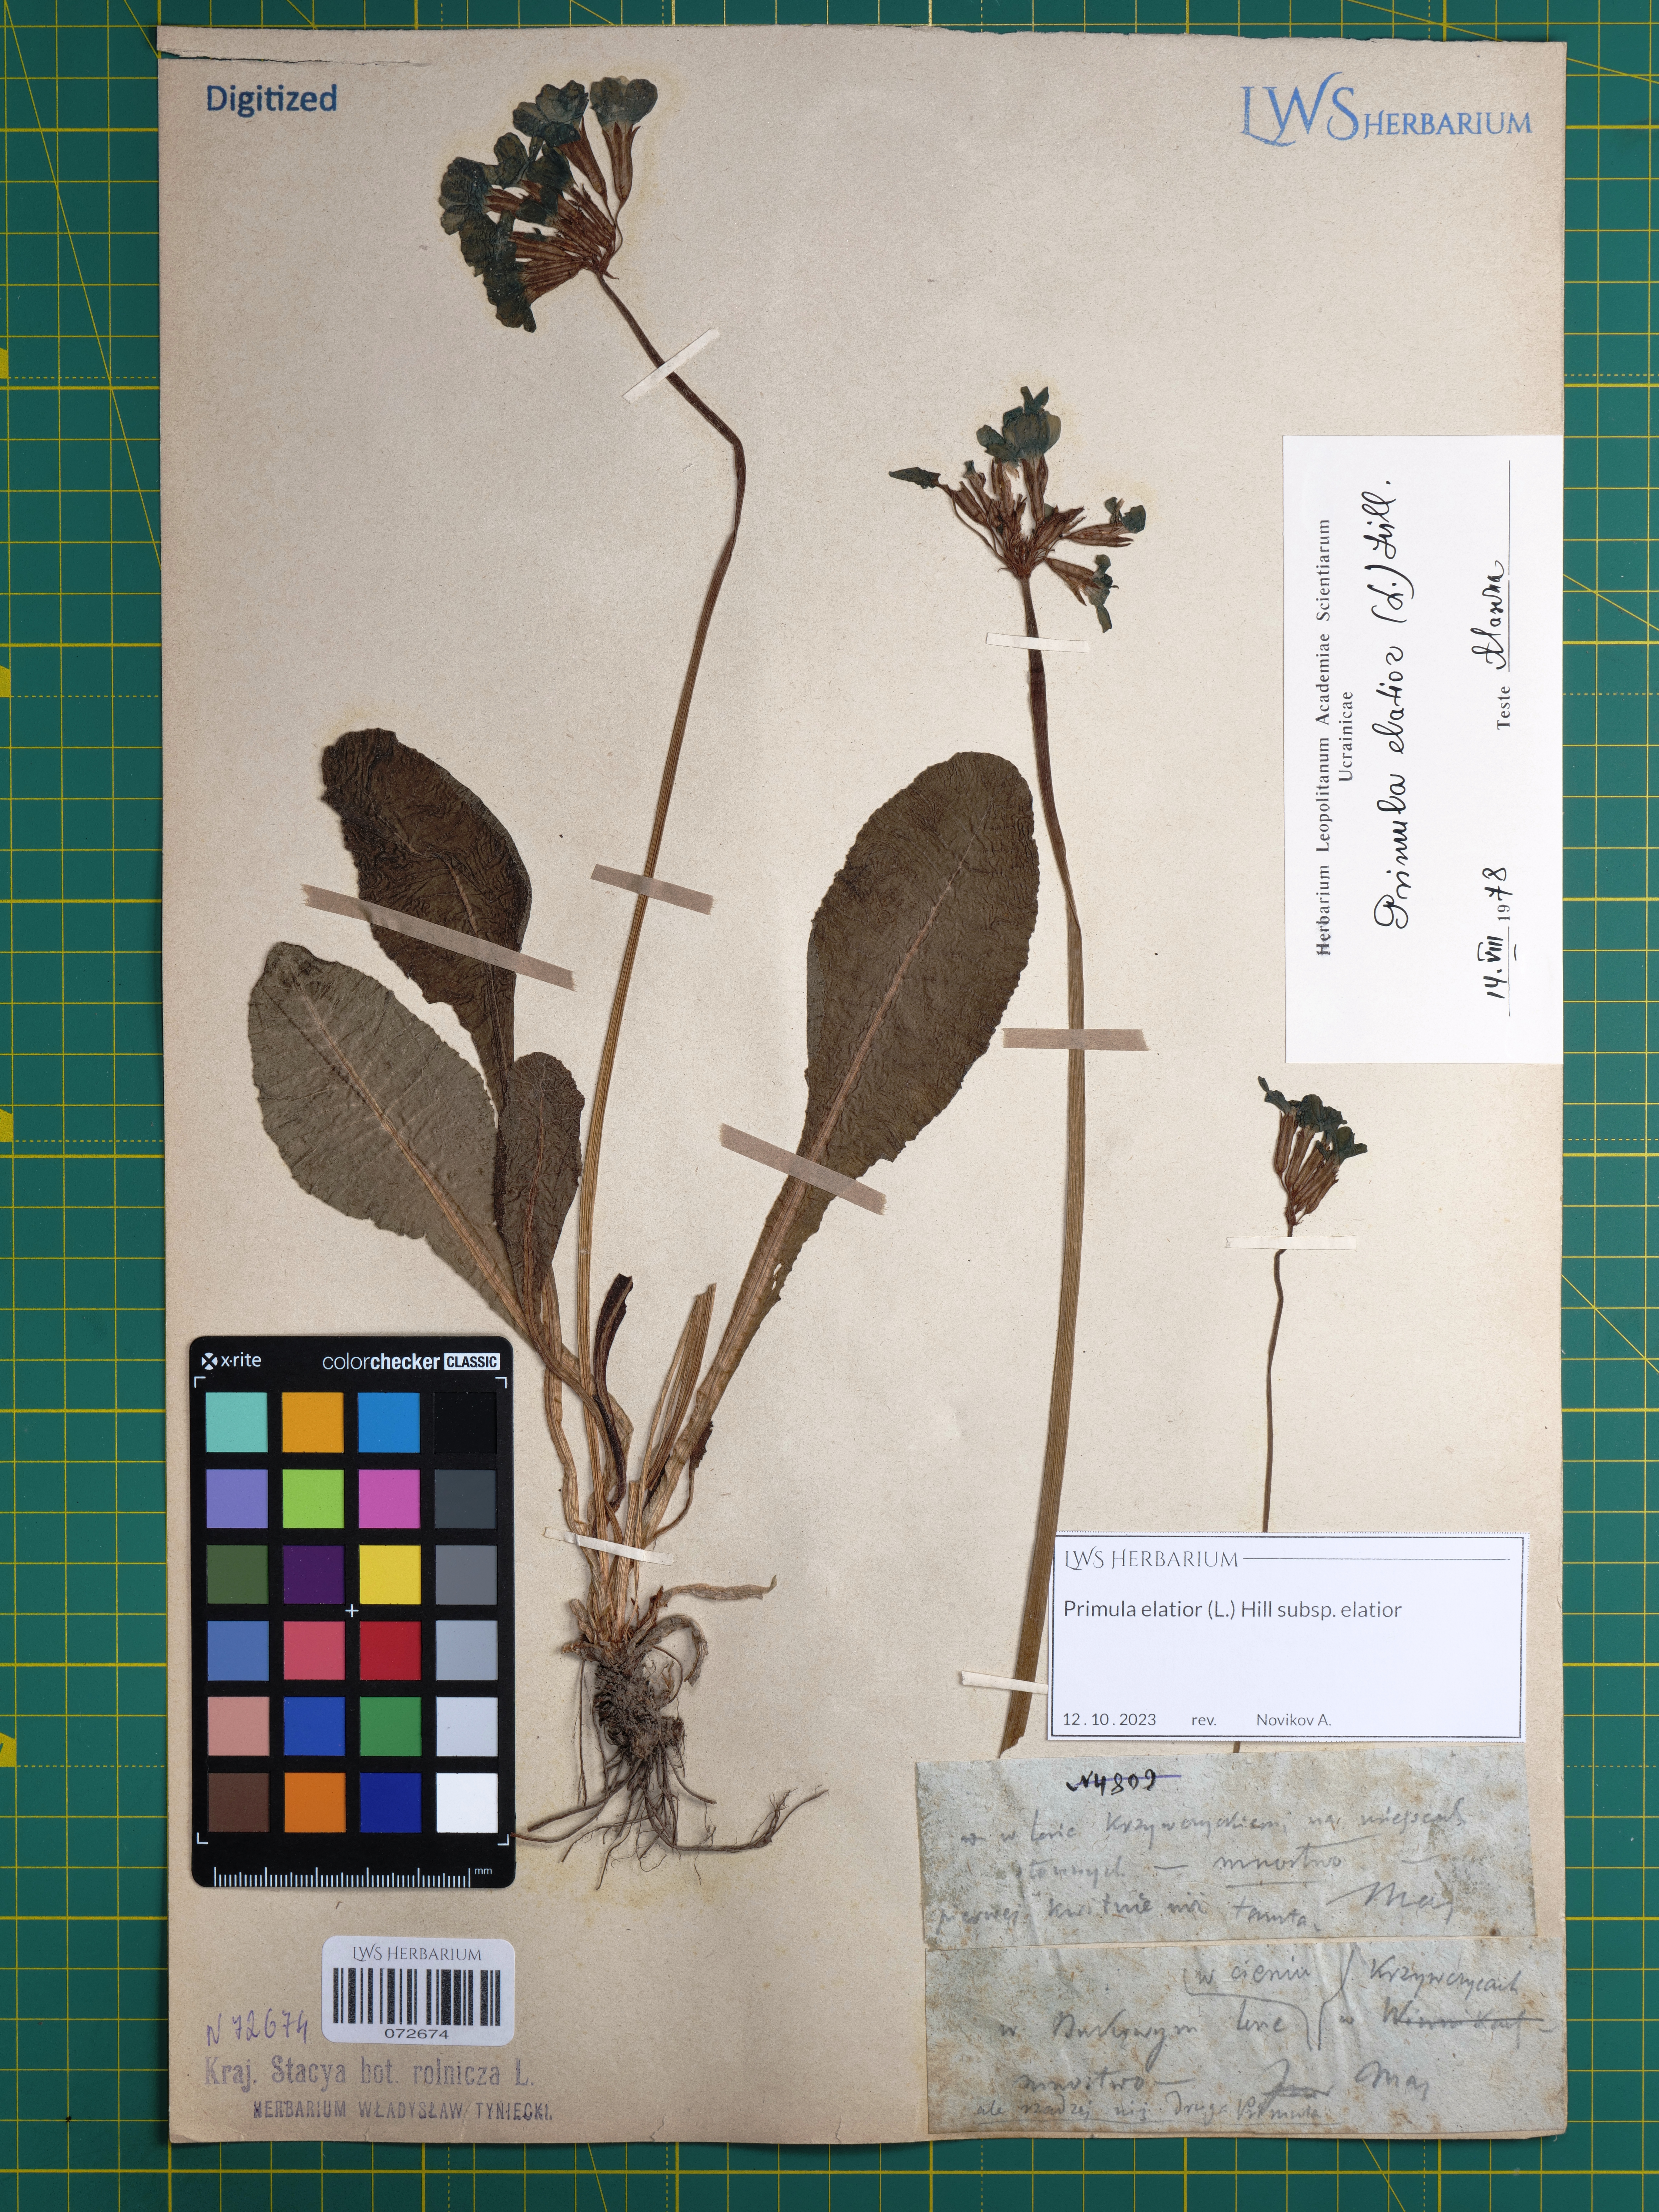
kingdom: Plantae
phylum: Tracheophyta
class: Magnoliopsida
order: Ericales
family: Primulaceae
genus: Primula
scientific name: Primula elatior
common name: Oxlip
